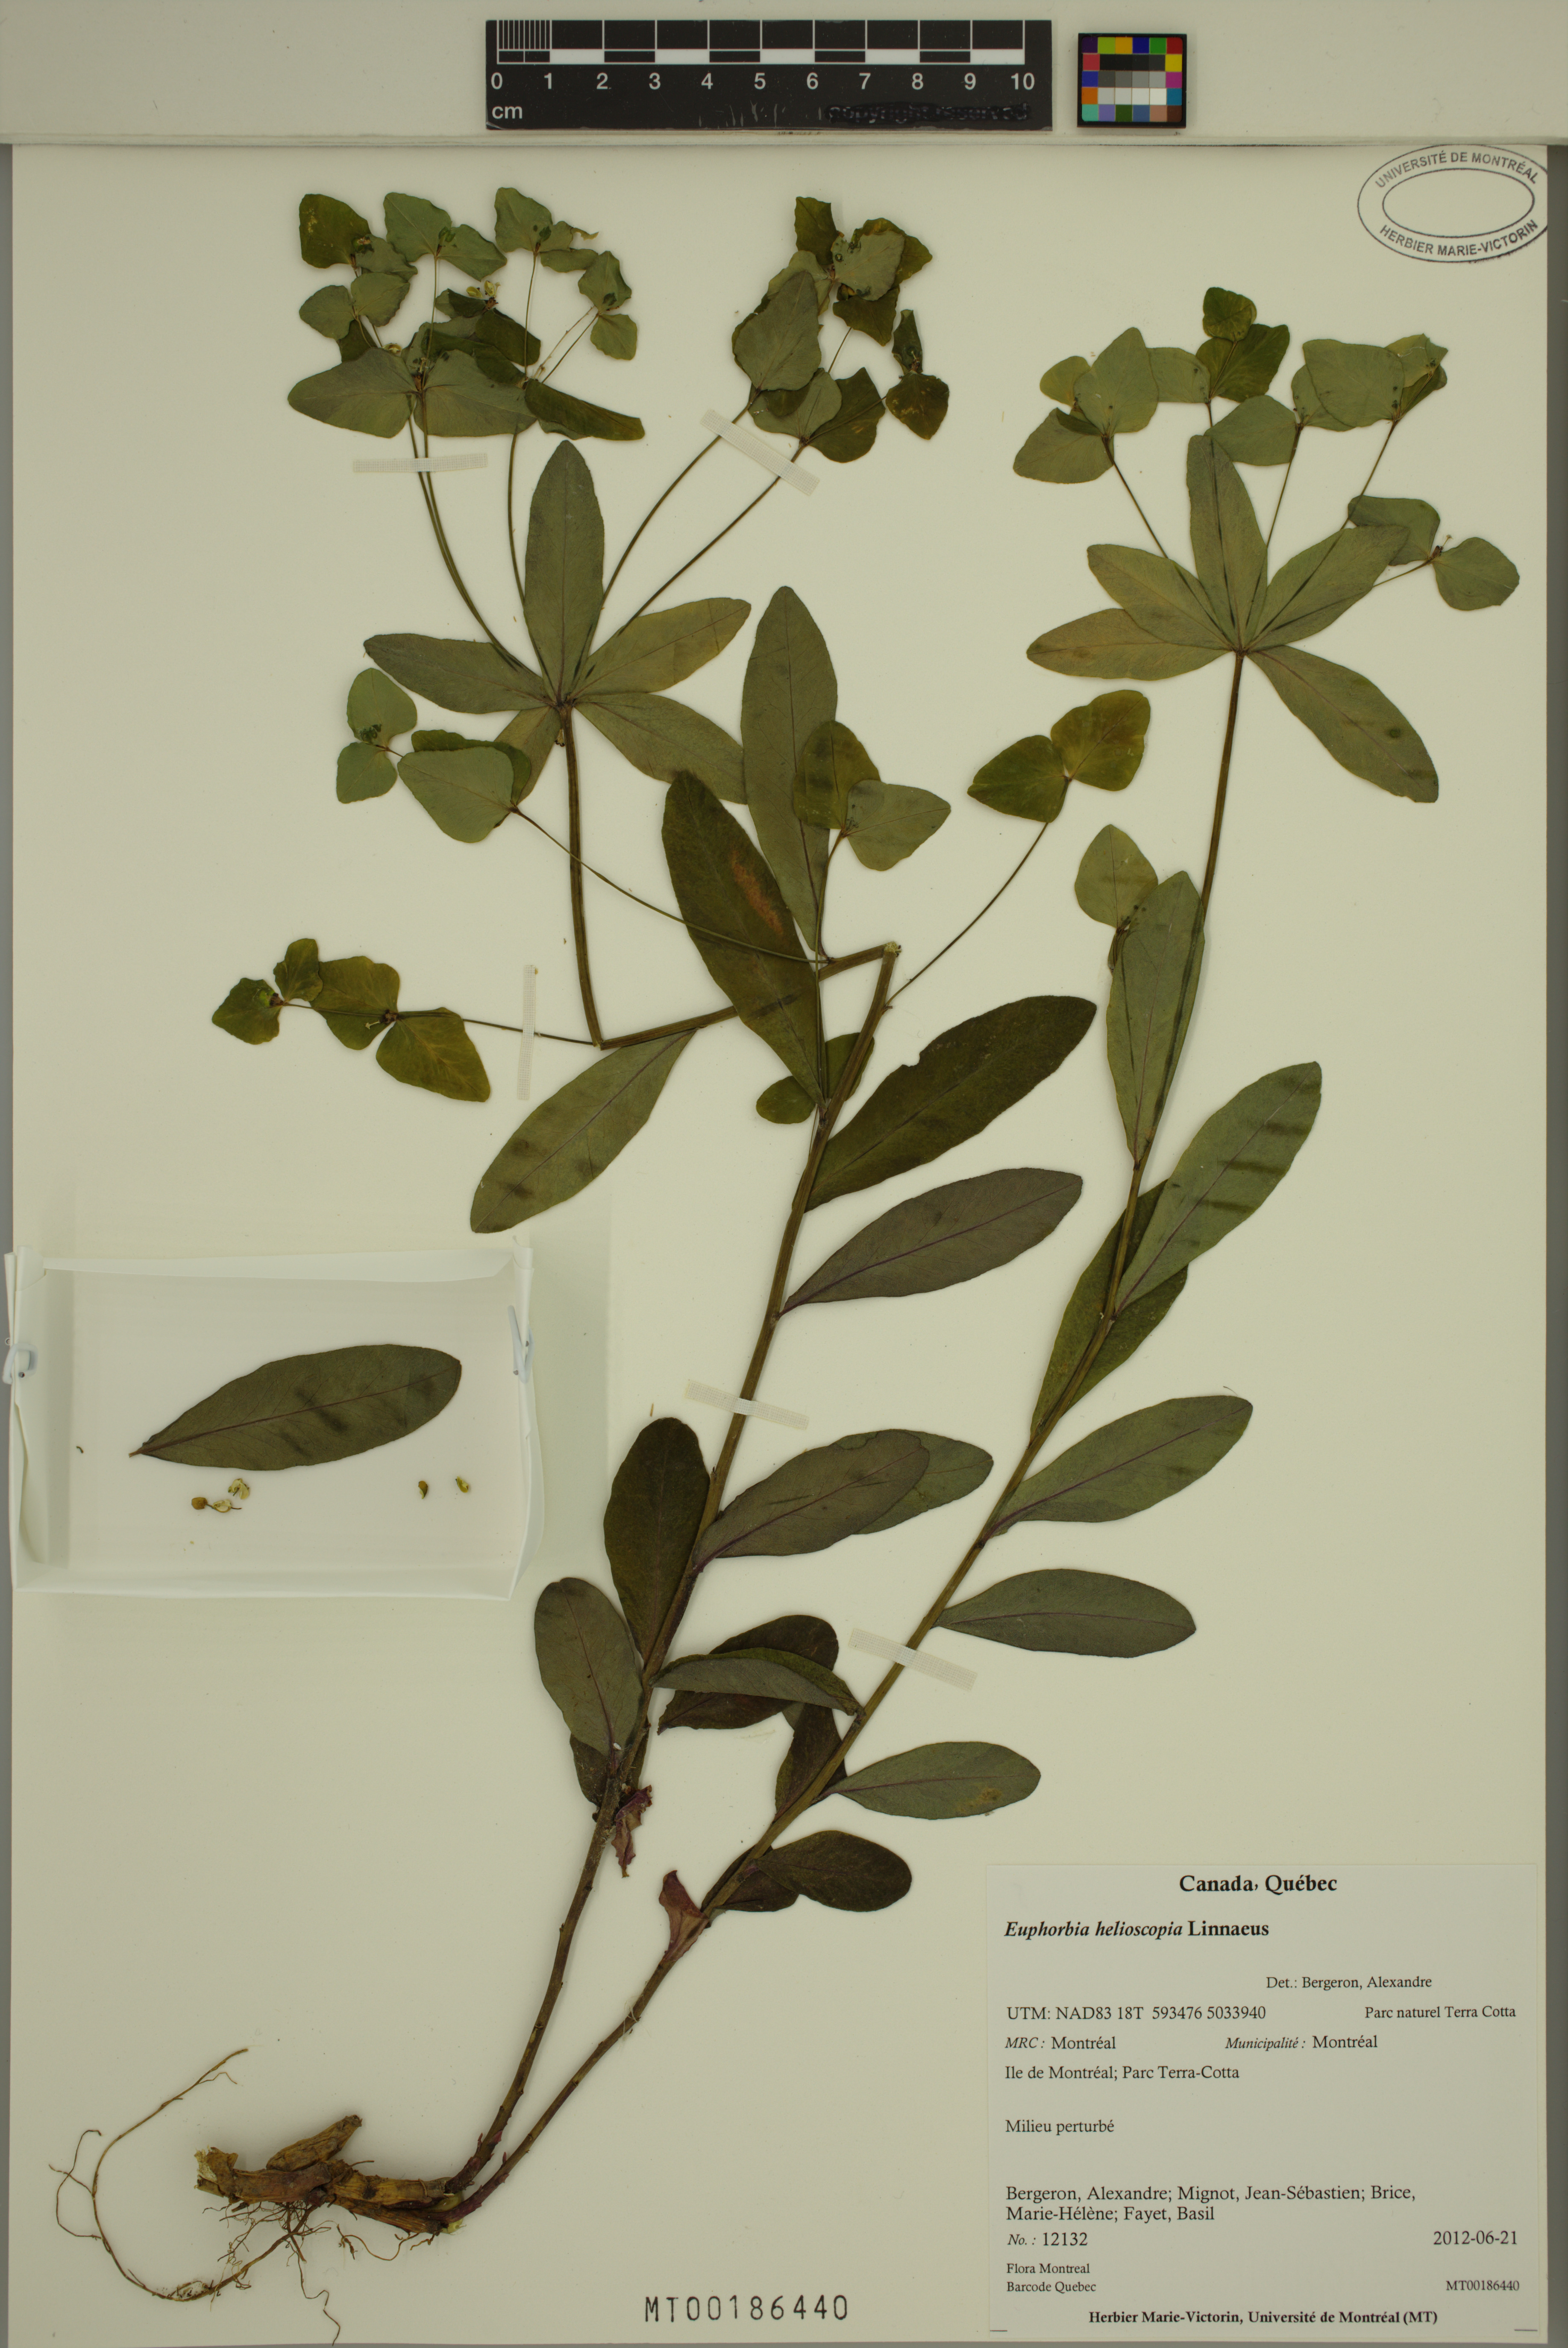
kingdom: Plantae
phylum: Tracheophyta
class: Magnoliopsida
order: Malpighiales
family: Euphorbiaceae
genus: Euphorbia
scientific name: Euphorbia helioscopia
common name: Sun spurge
